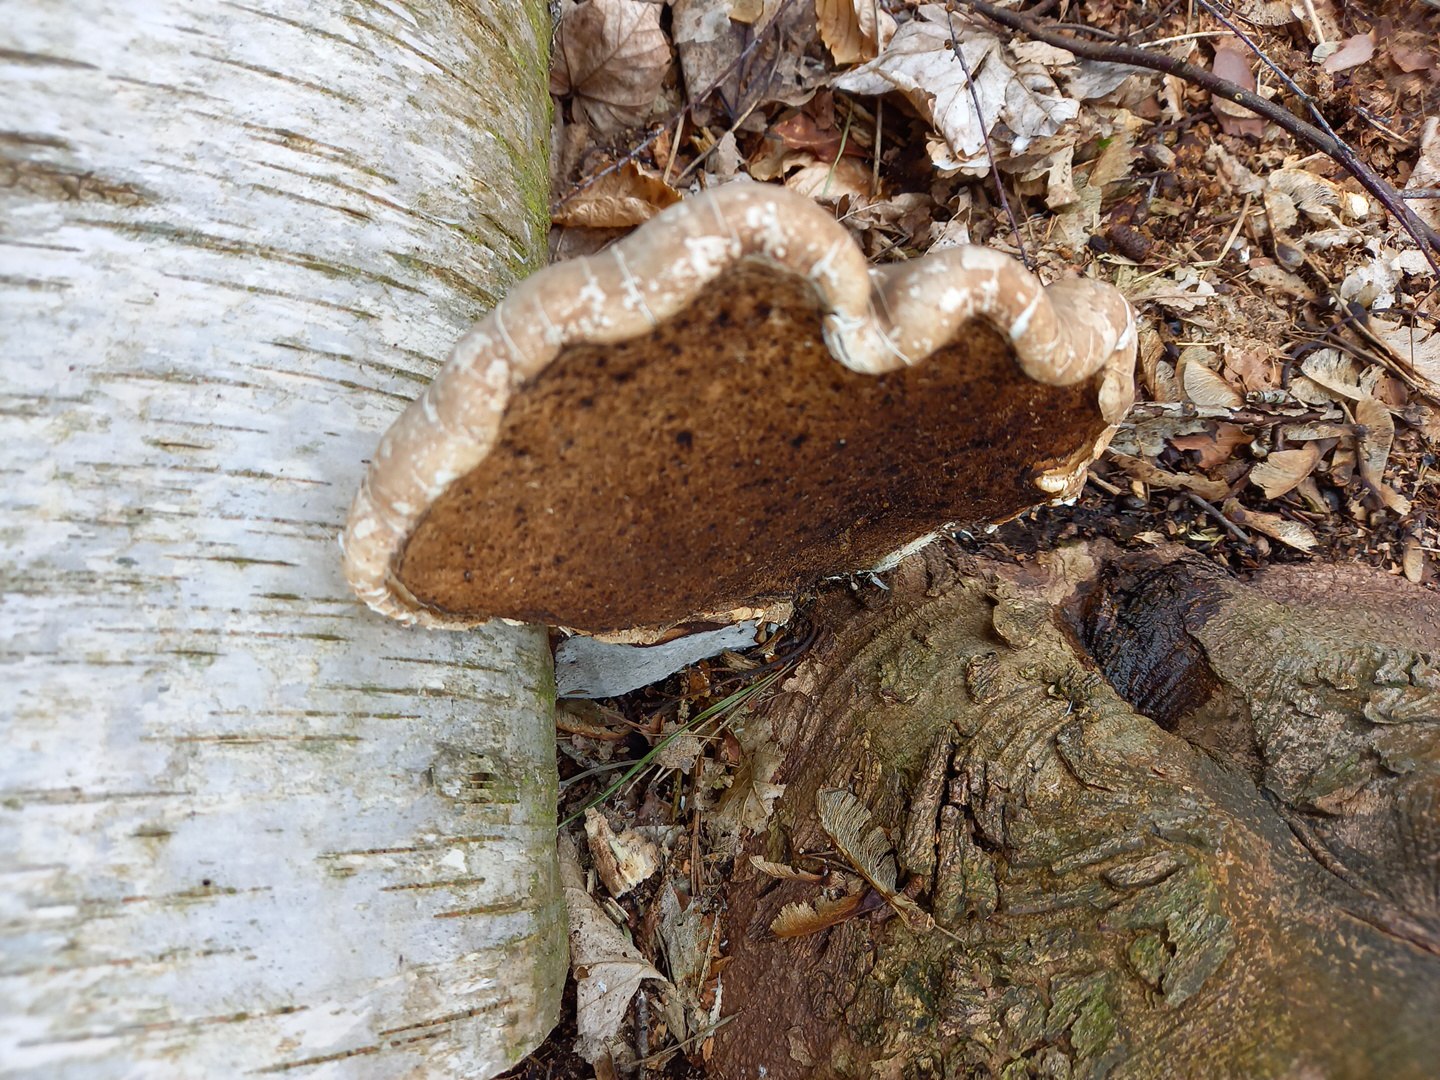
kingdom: Fungi
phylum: Basidiomycota
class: Agaricomycetes
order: Polyporales
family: Fomitopsidaceae
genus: Fomitopsis
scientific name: Fomitopsis betulina
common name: birkeporesvamp
